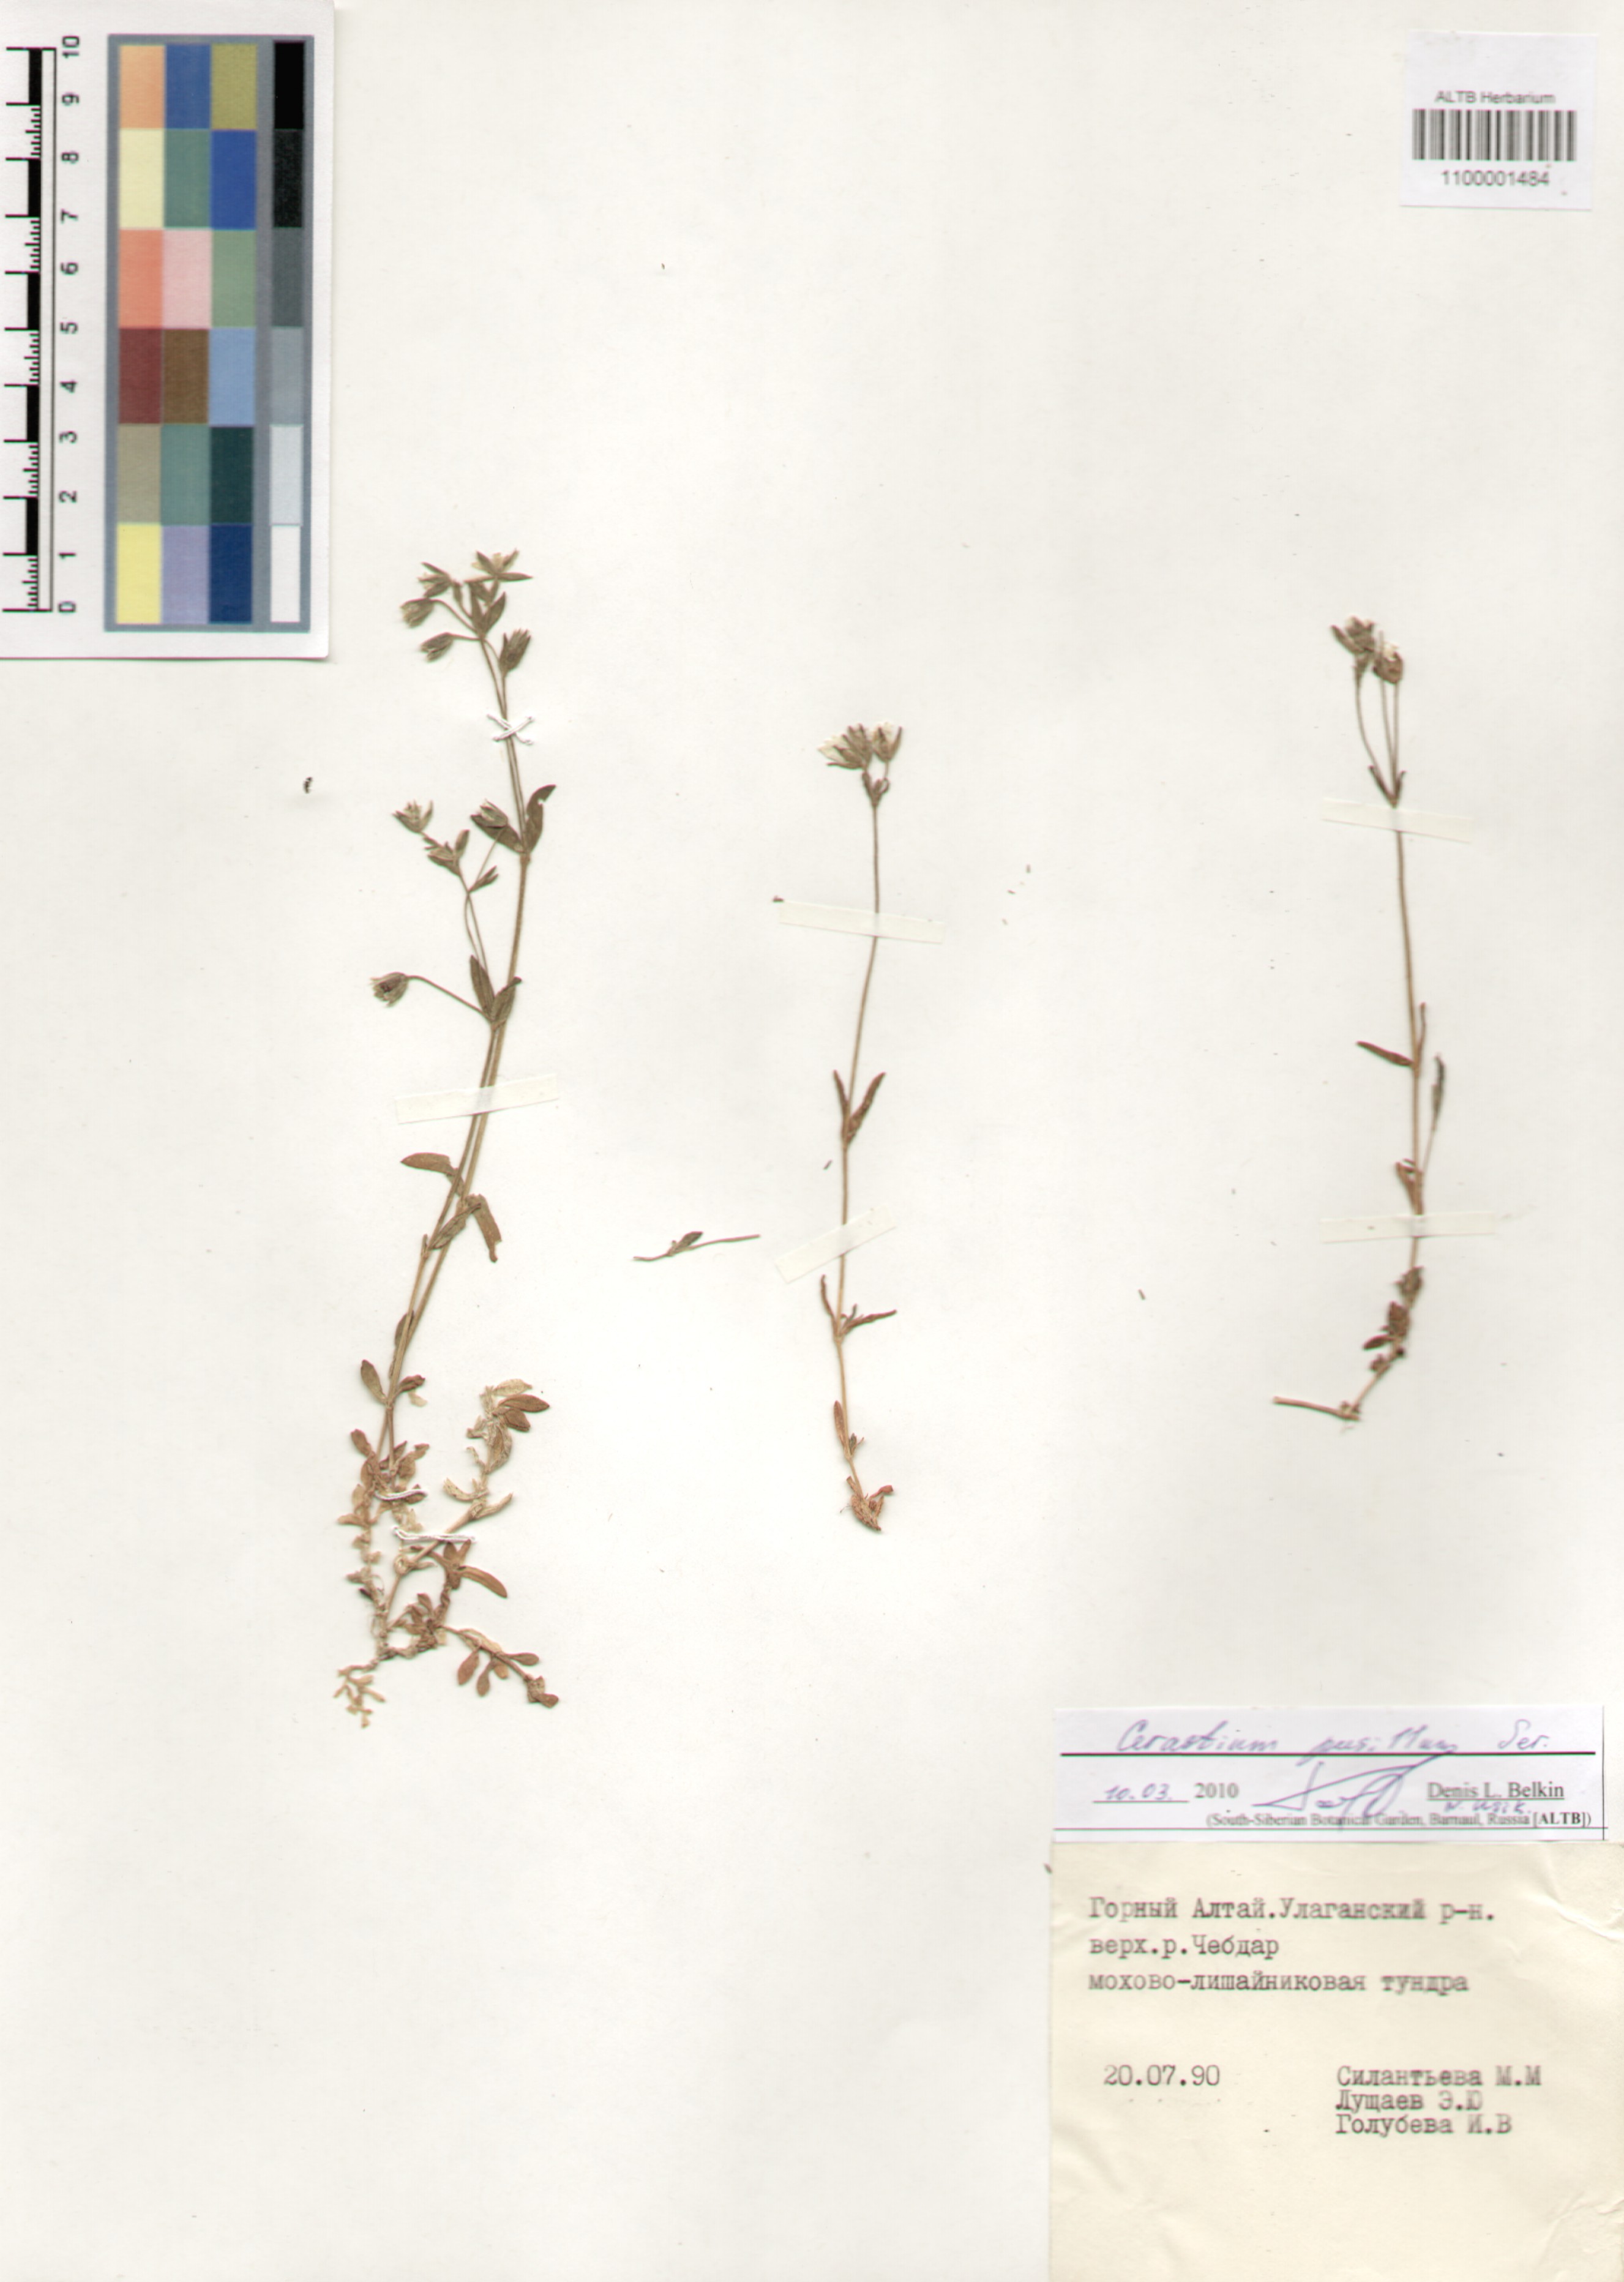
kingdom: Plantae
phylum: Tracheophyta
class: Magnoliopsida
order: Caryophyllales
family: Caryophyllaceae
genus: Cerastium
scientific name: Cerastium pusillum
